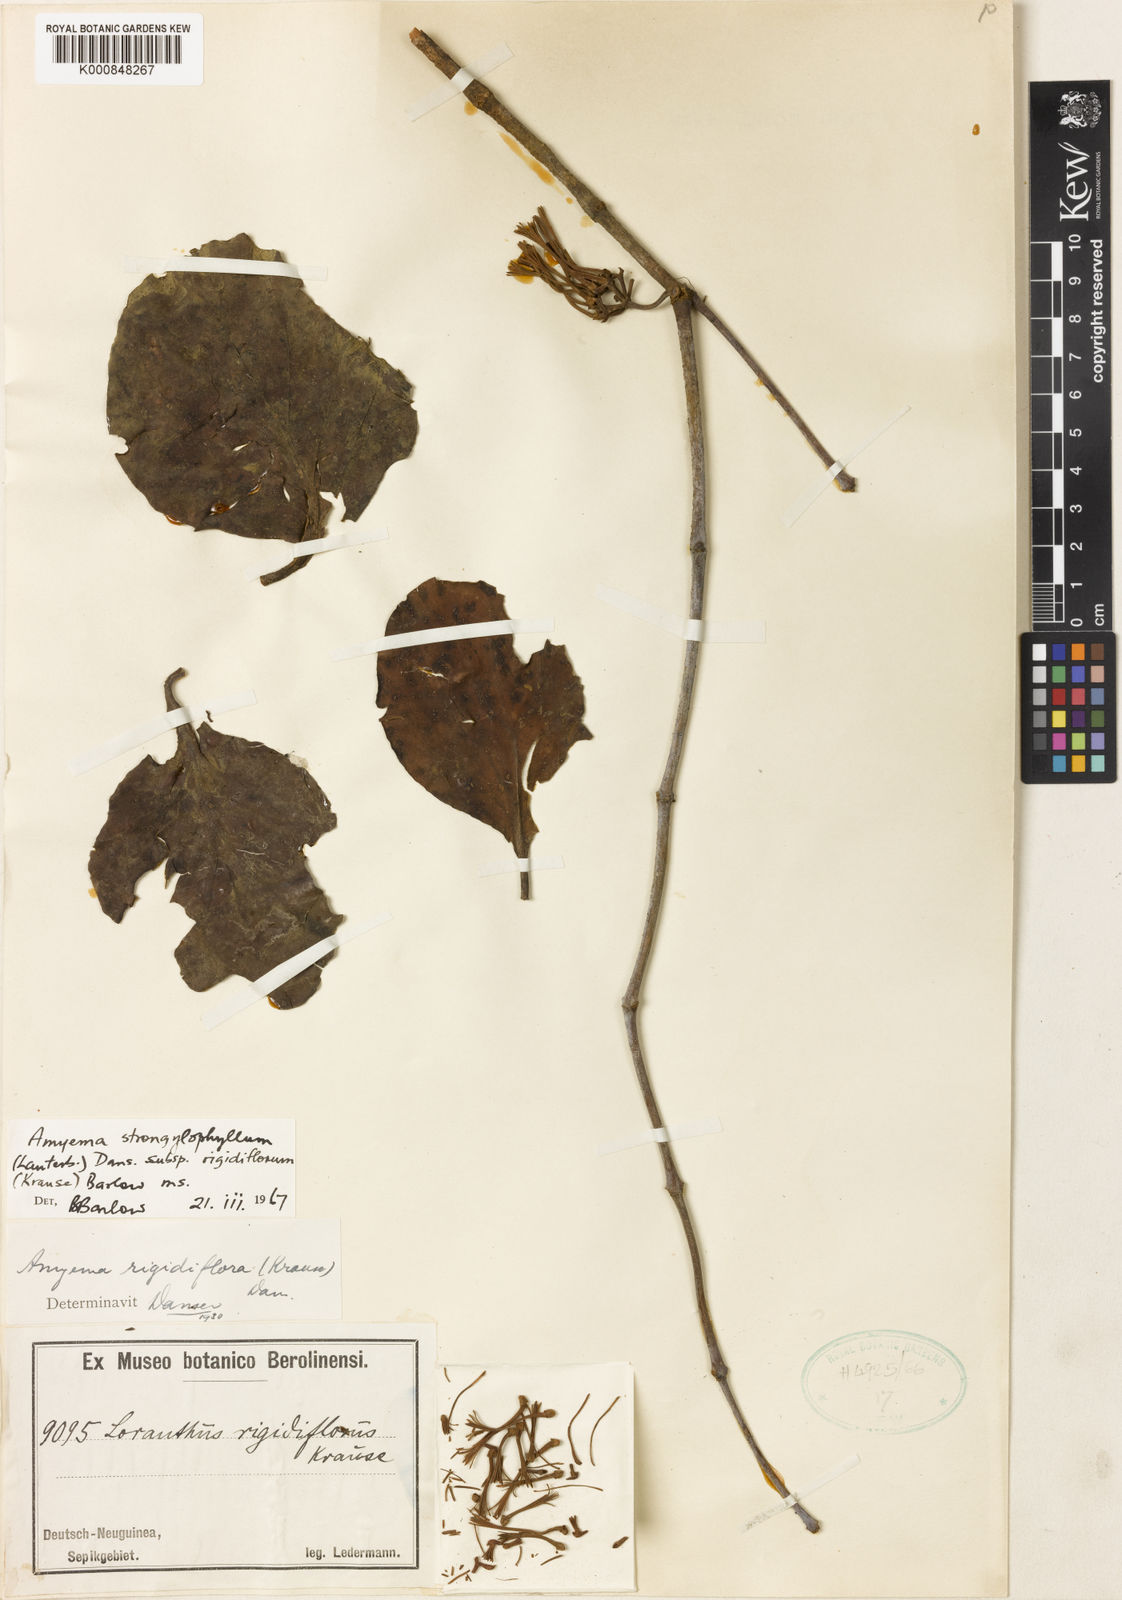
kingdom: Plantae
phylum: Tracheophyta
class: Magnoliopsida
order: Santalales
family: Loranthaceae
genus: Amyema
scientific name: Amyema rigidiflora
